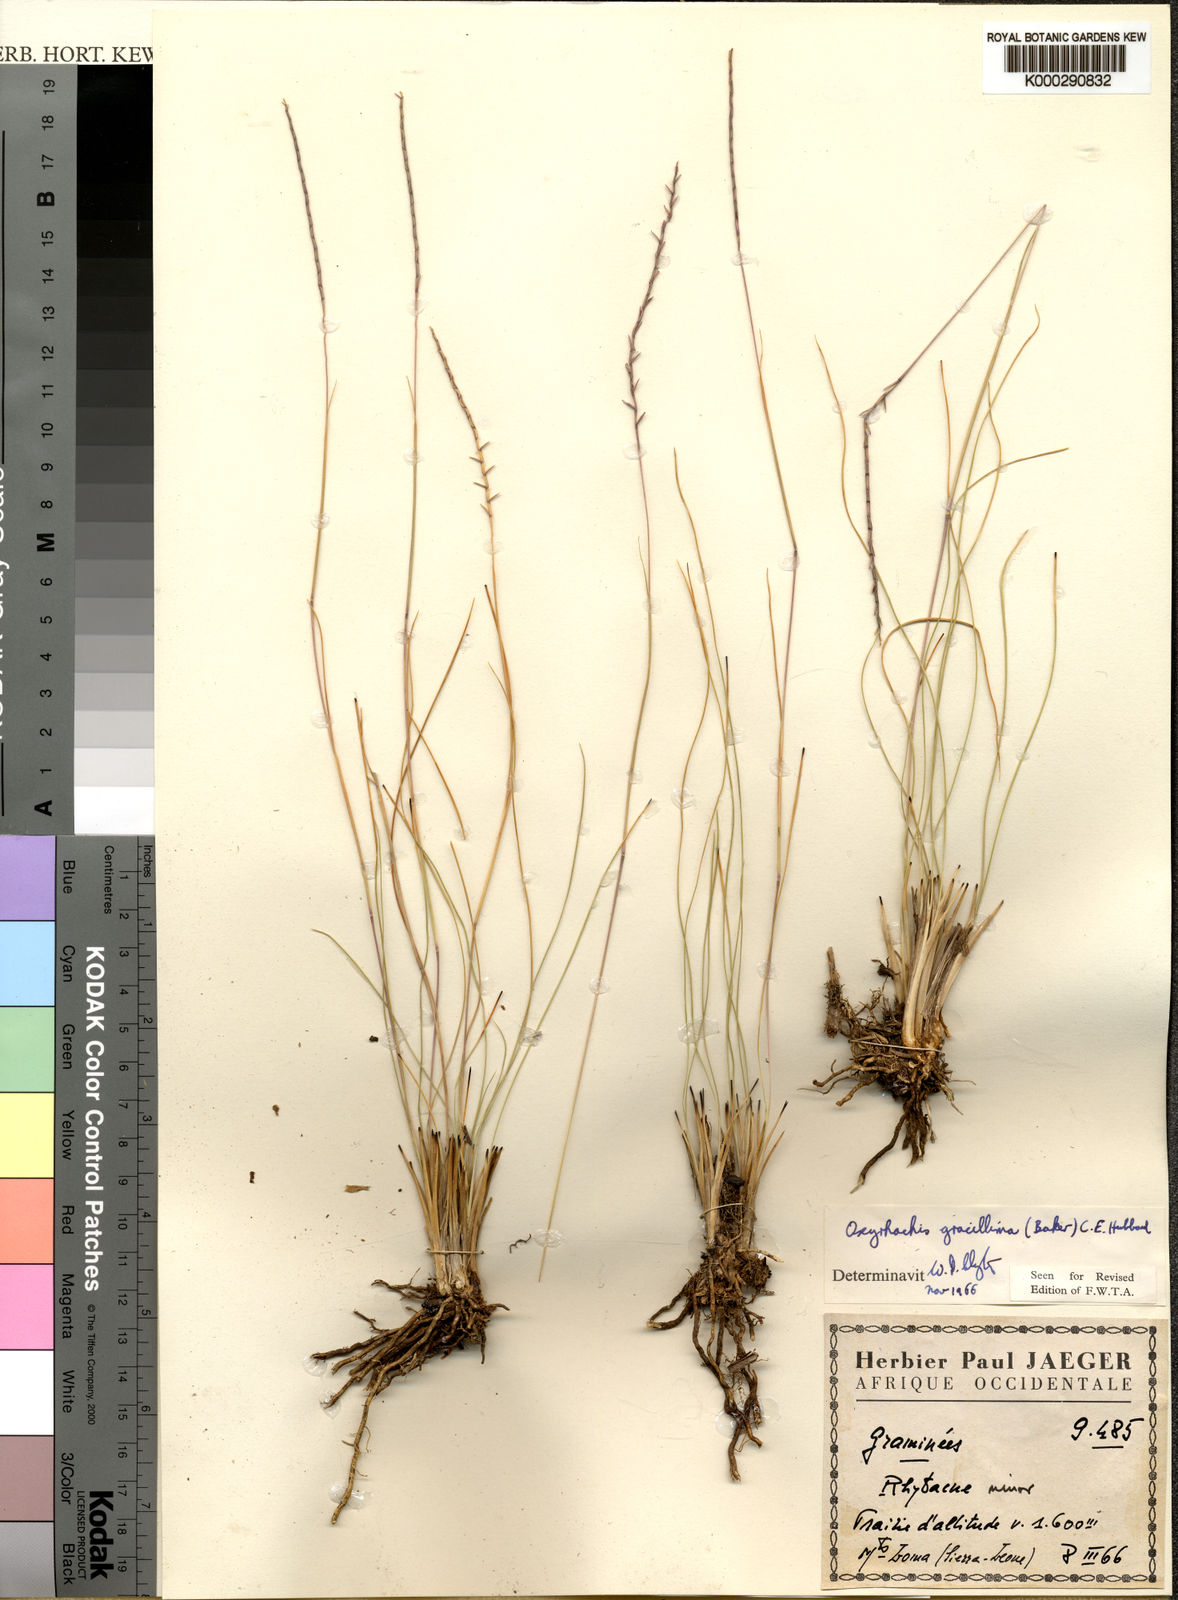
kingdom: Plantae
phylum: Tracheophyta
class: Liliopsida
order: Poales
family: Poaceae
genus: Oxyrhachis
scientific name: Oxyrhachis gracillima
